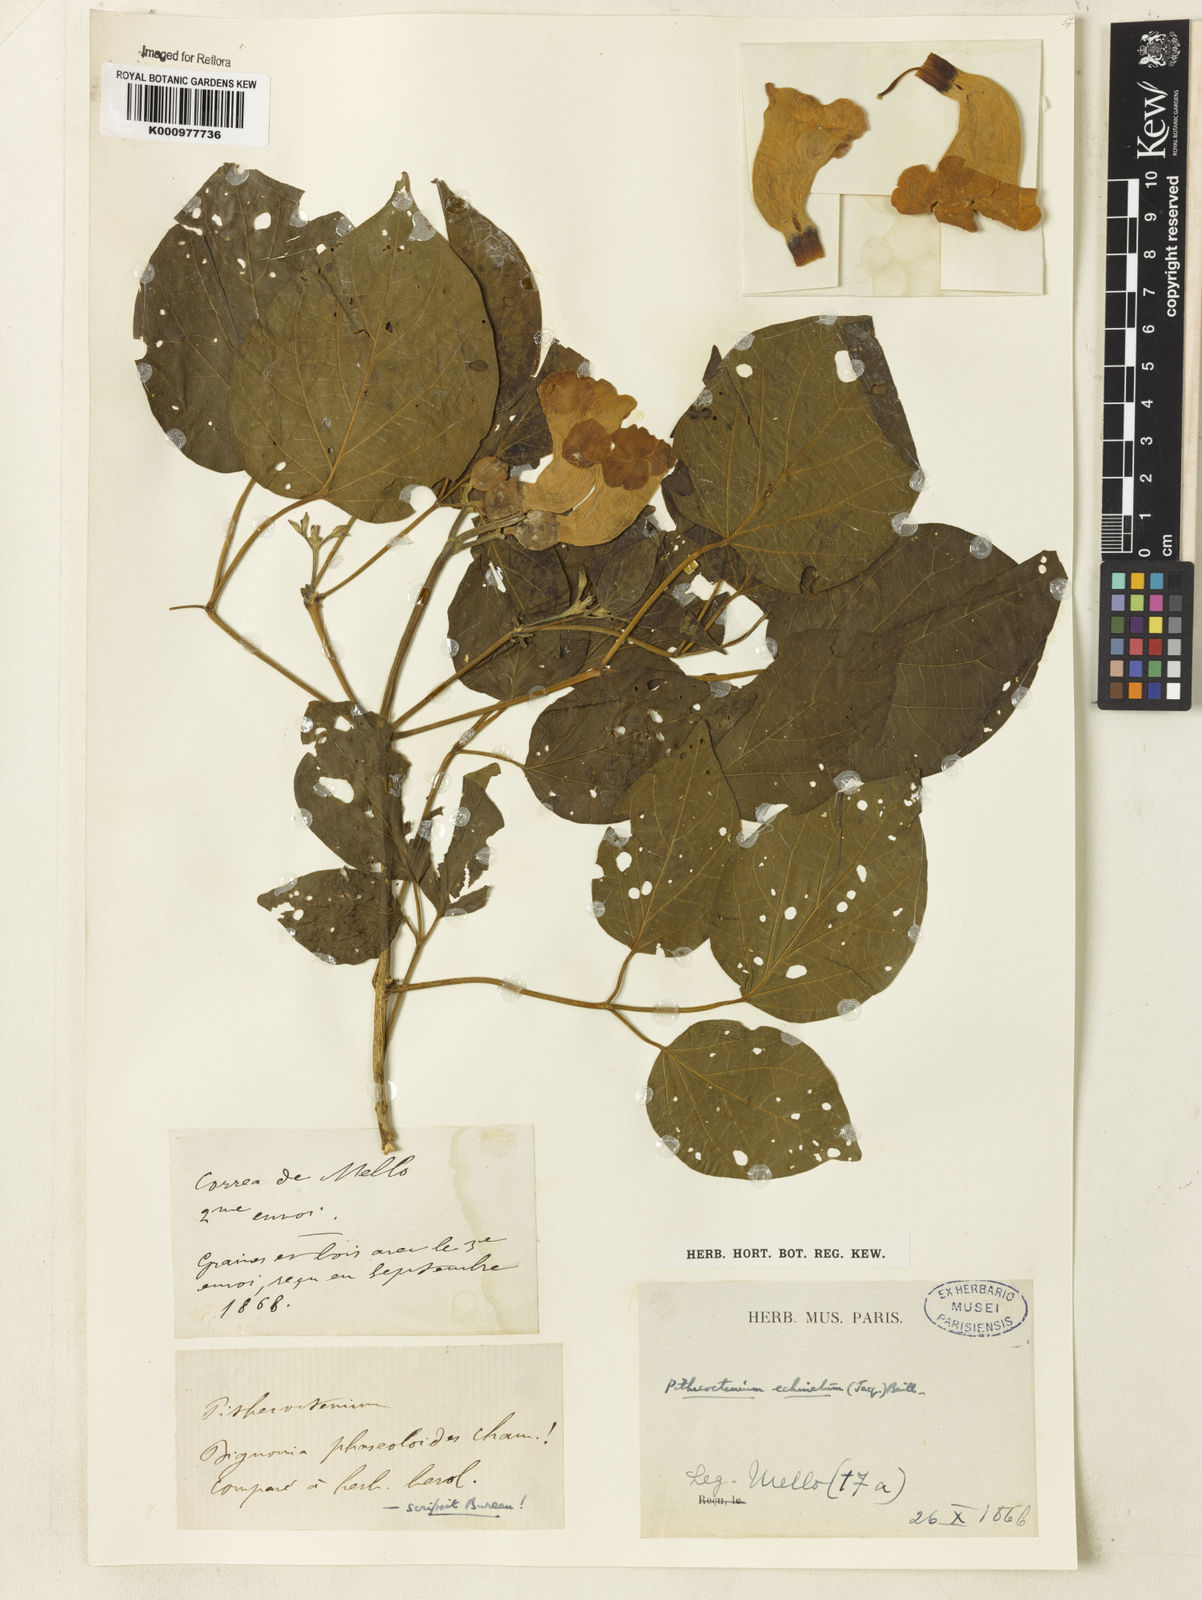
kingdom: Plantae
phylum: Tracheophyta
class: Magnoliopsida
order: Lamiales
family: Bignoniaceae
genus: Amphilophium
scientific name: Amphilophium crucigerum
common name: Monkey comb
